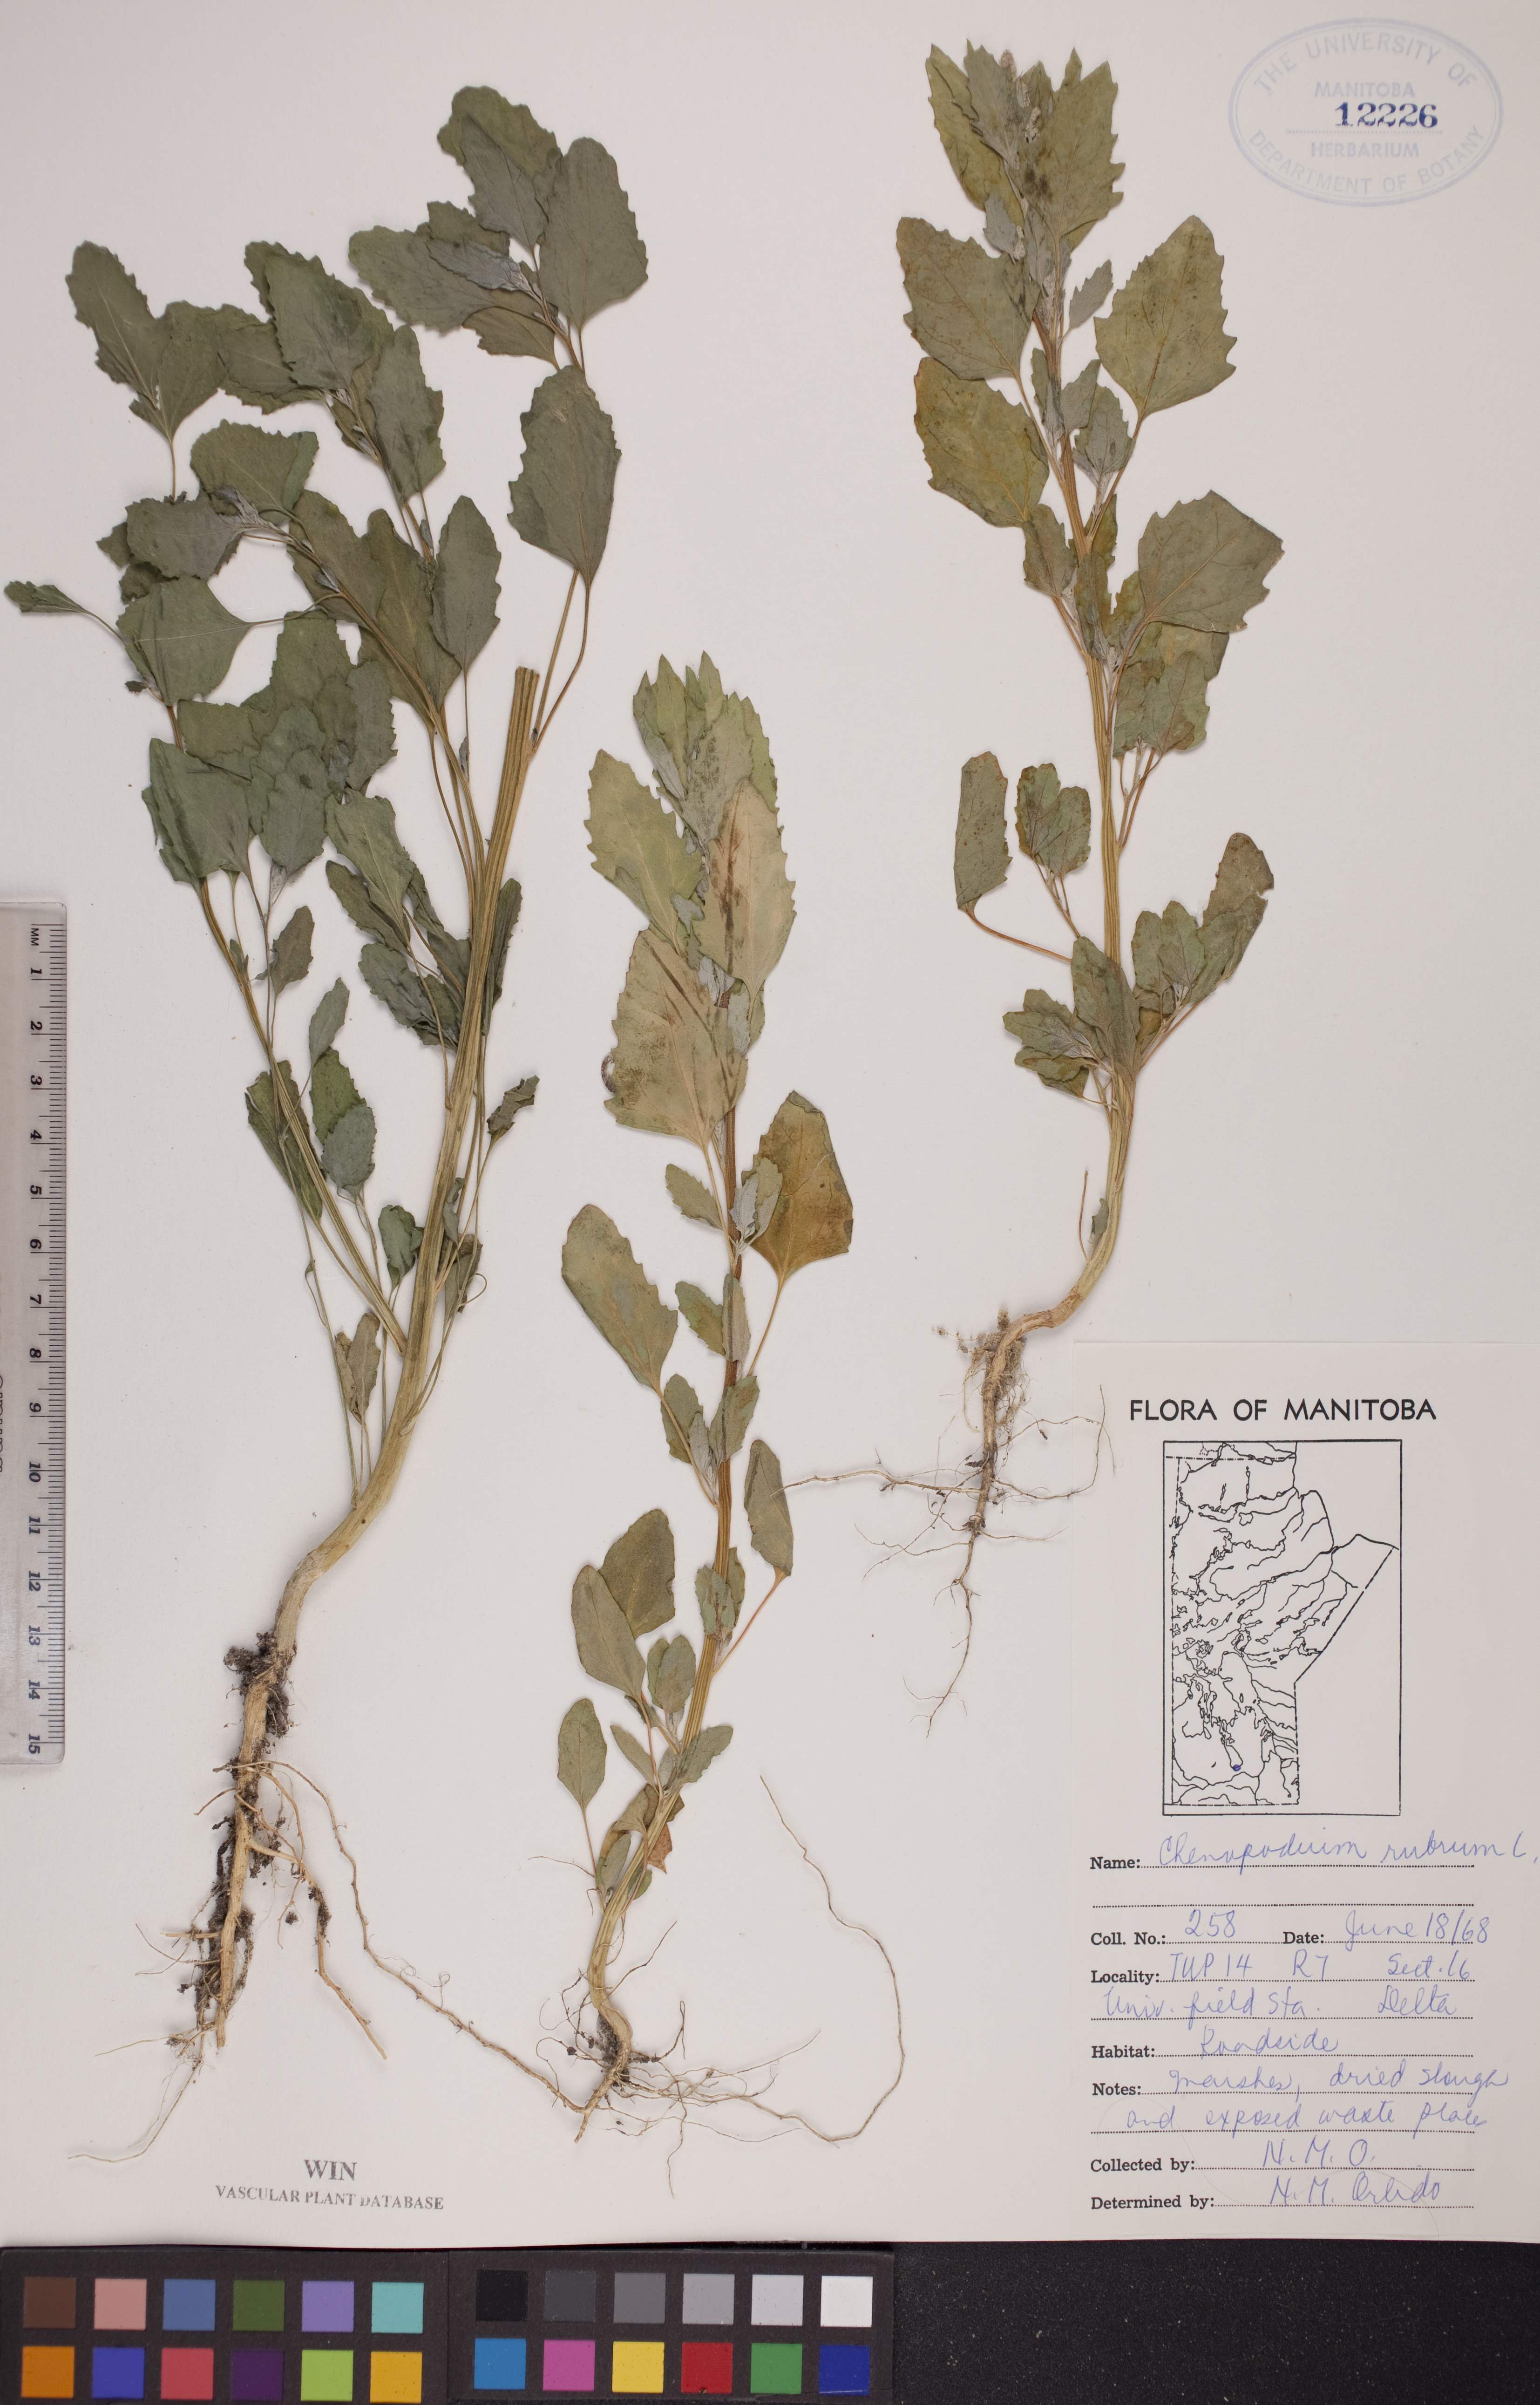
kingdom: Plantae
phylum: Tracheophyta
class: Magnoliopsida
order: Caryophyllales
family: Amaranthaceae
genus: Oxybasis
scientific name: Oxybasis rubra
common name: Red goosefoot
